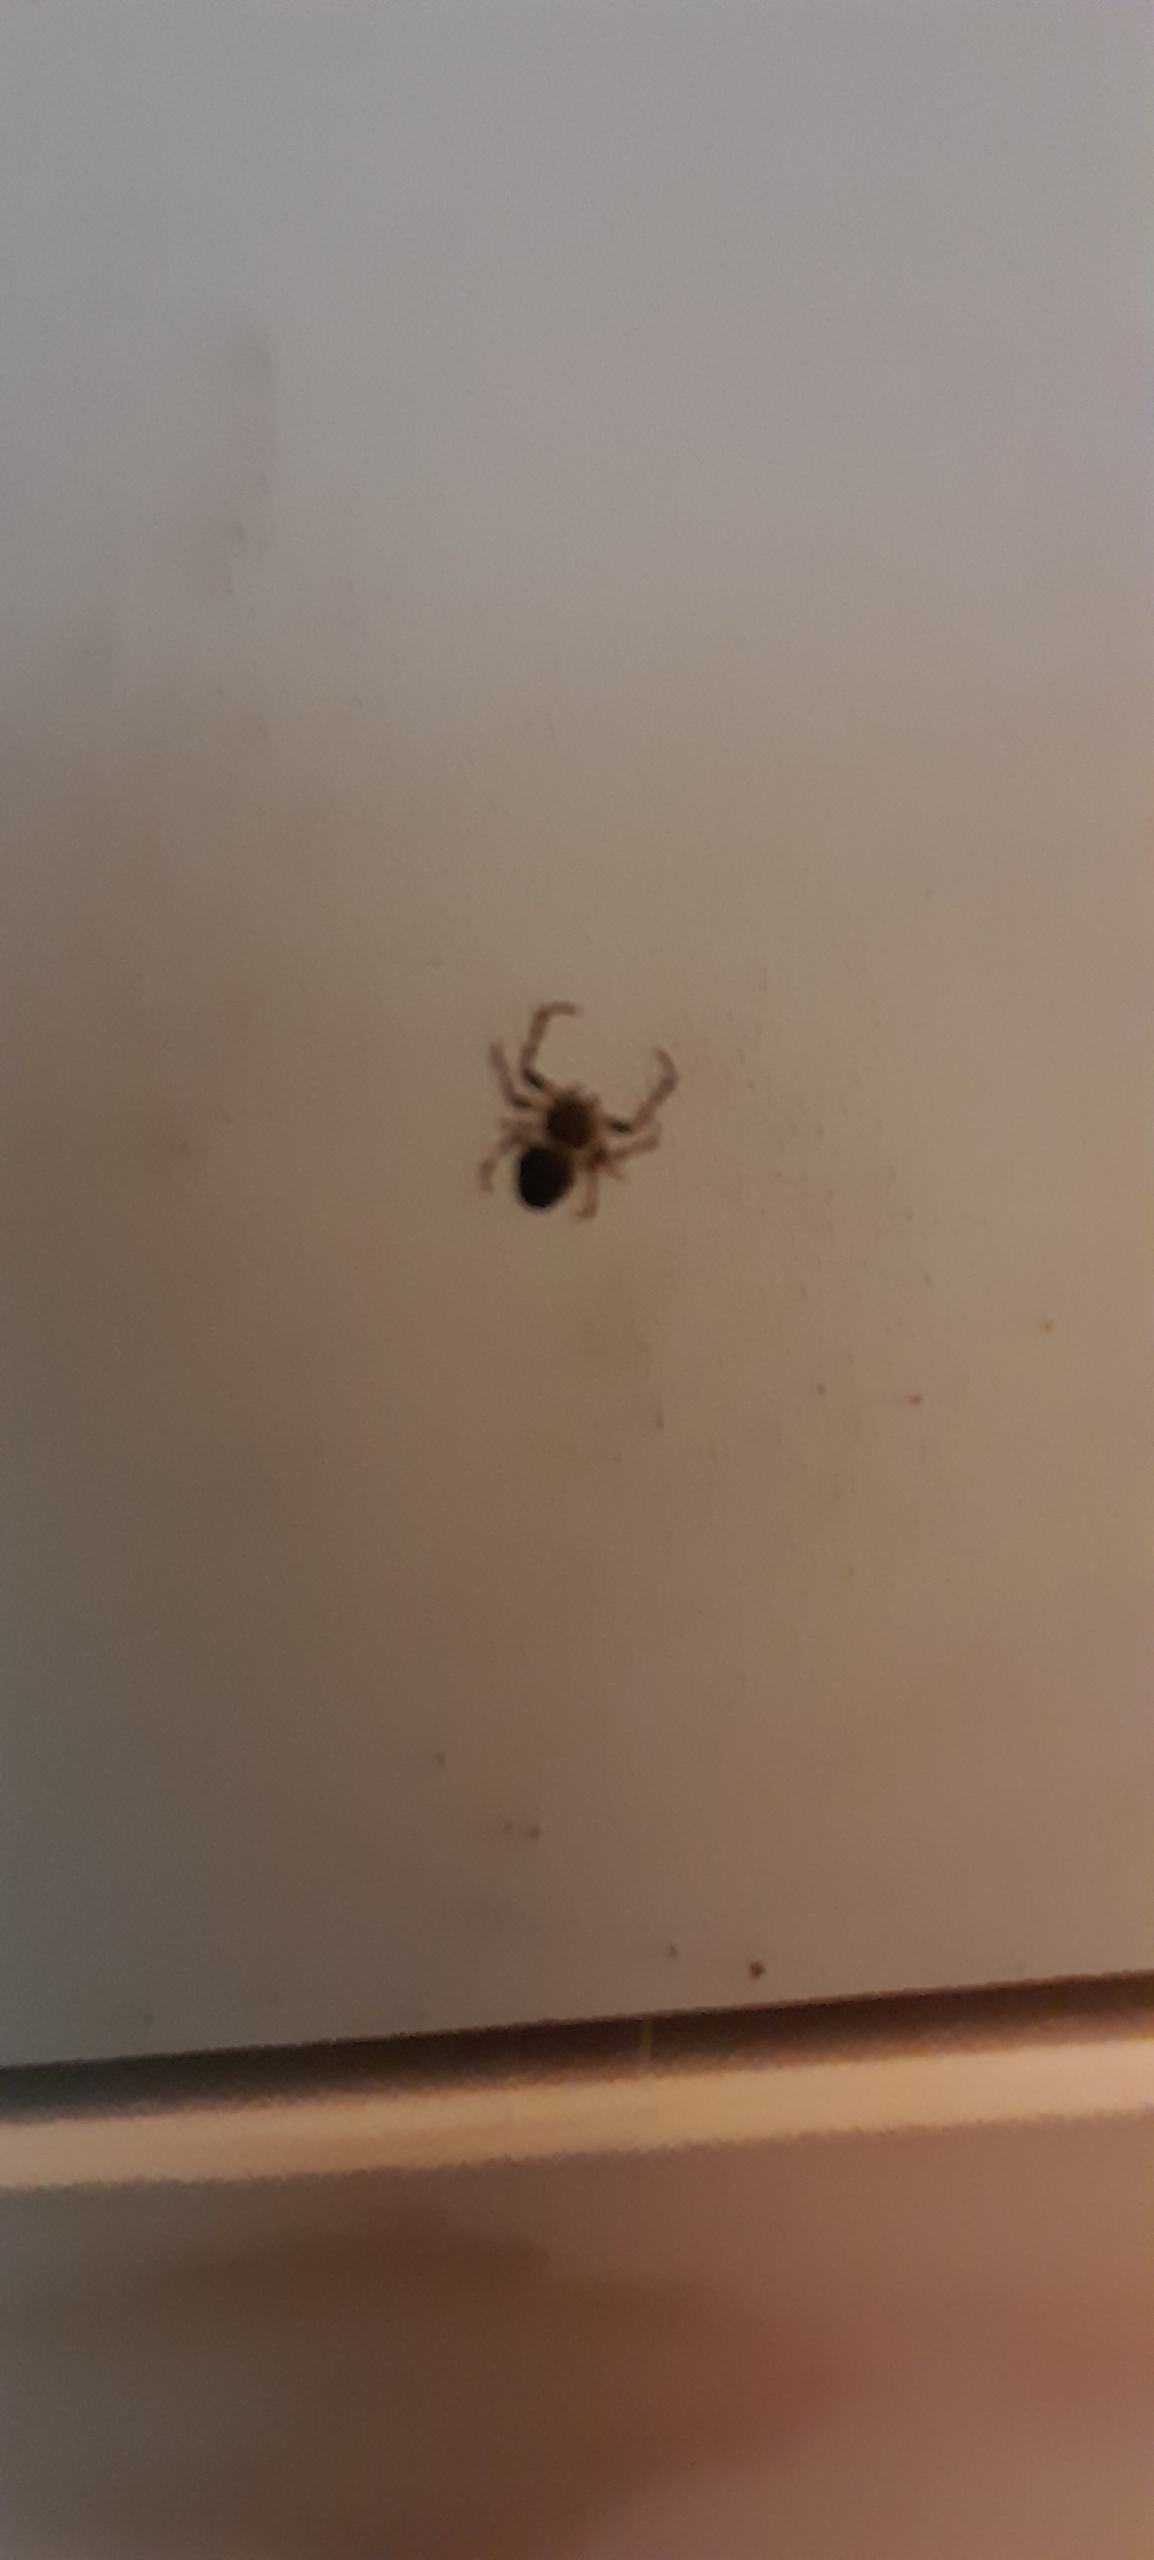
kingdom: Animalia
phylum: Arthropoda
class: Arachnida
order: Araneae
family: Araneidae
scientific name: Araneidae
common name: Hjulspindere
